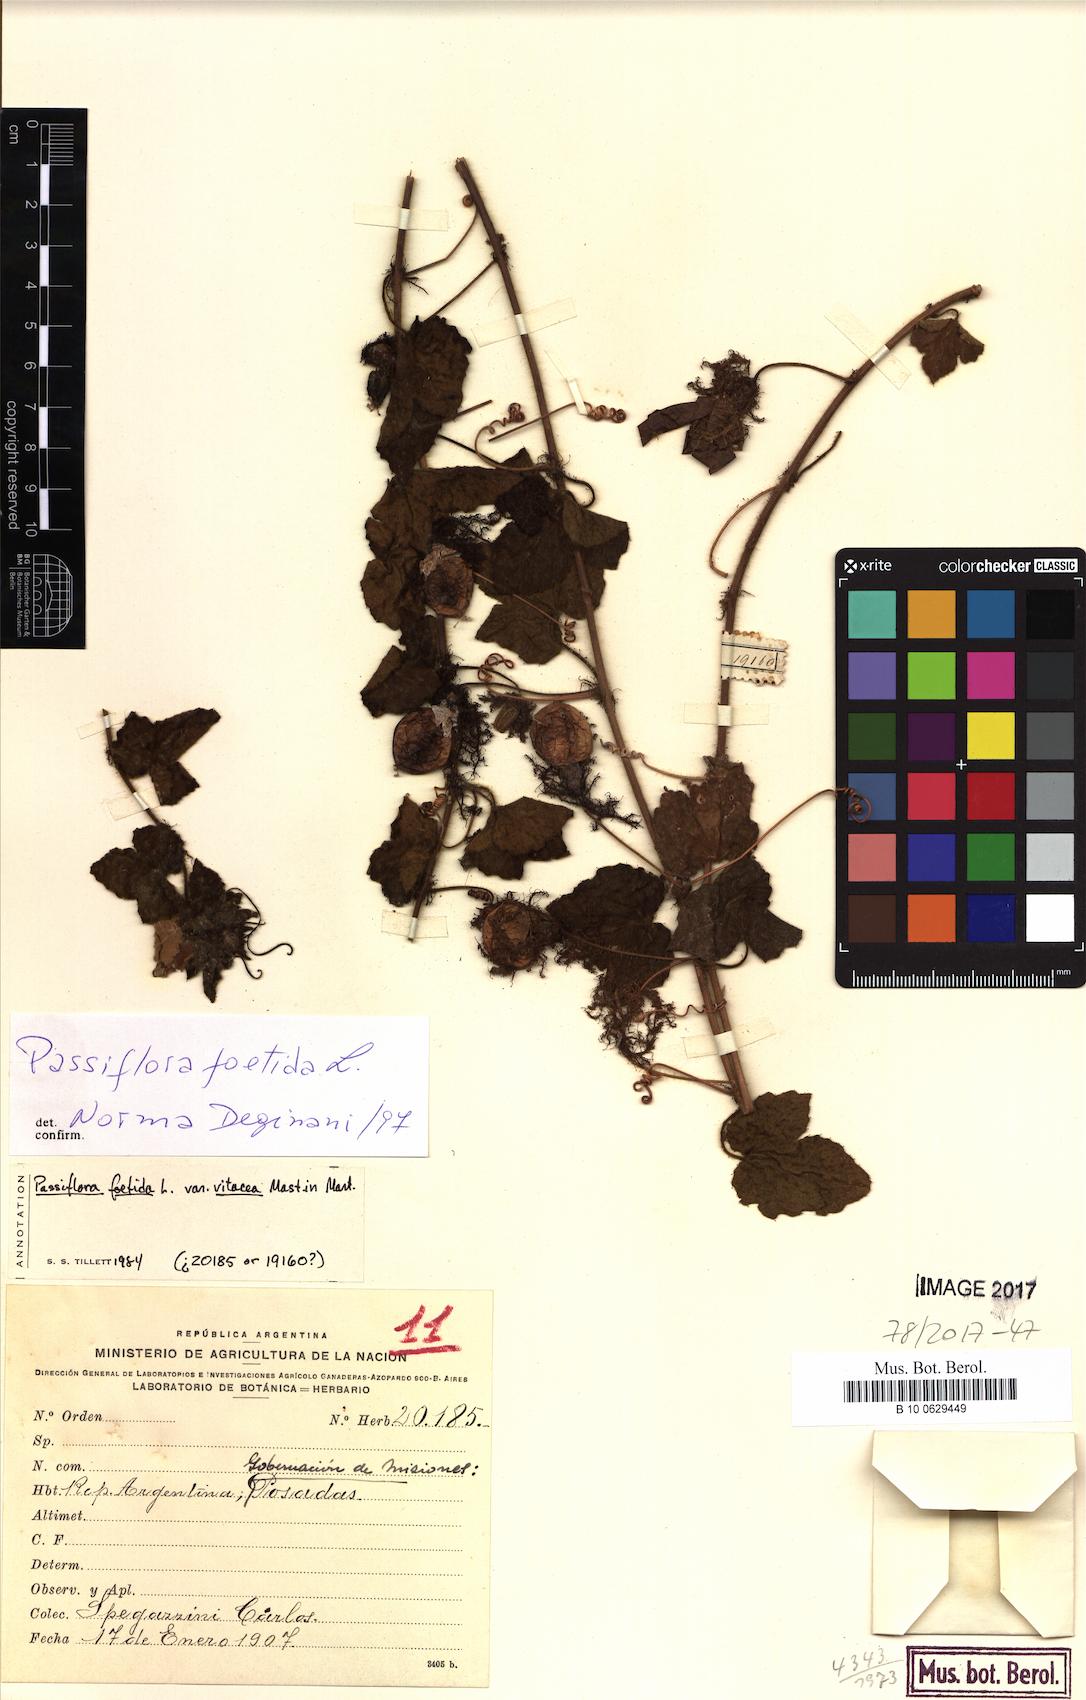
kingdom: Plantae
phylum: Tracheophyta
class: Magnoliopsida
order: Malpighiales
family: Passifloraceae
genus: Passiflora
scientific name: Passiflora foetida
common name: Fetid passionflower
